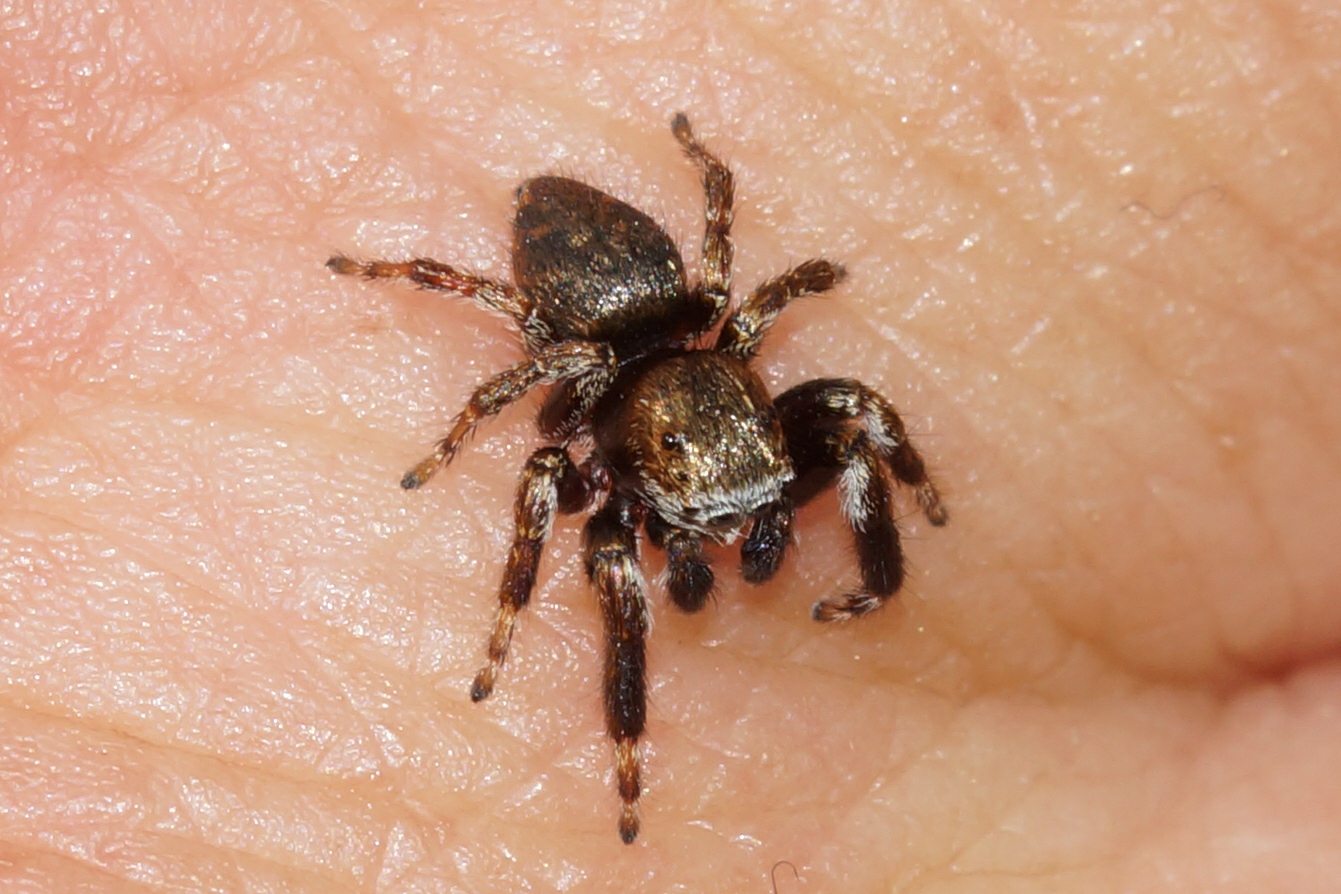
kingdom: Animalia
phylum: Arthropoda
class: Arachnida
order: Araneae
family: Salticidae
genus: Evarcha
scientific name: Evarcha arcuata
